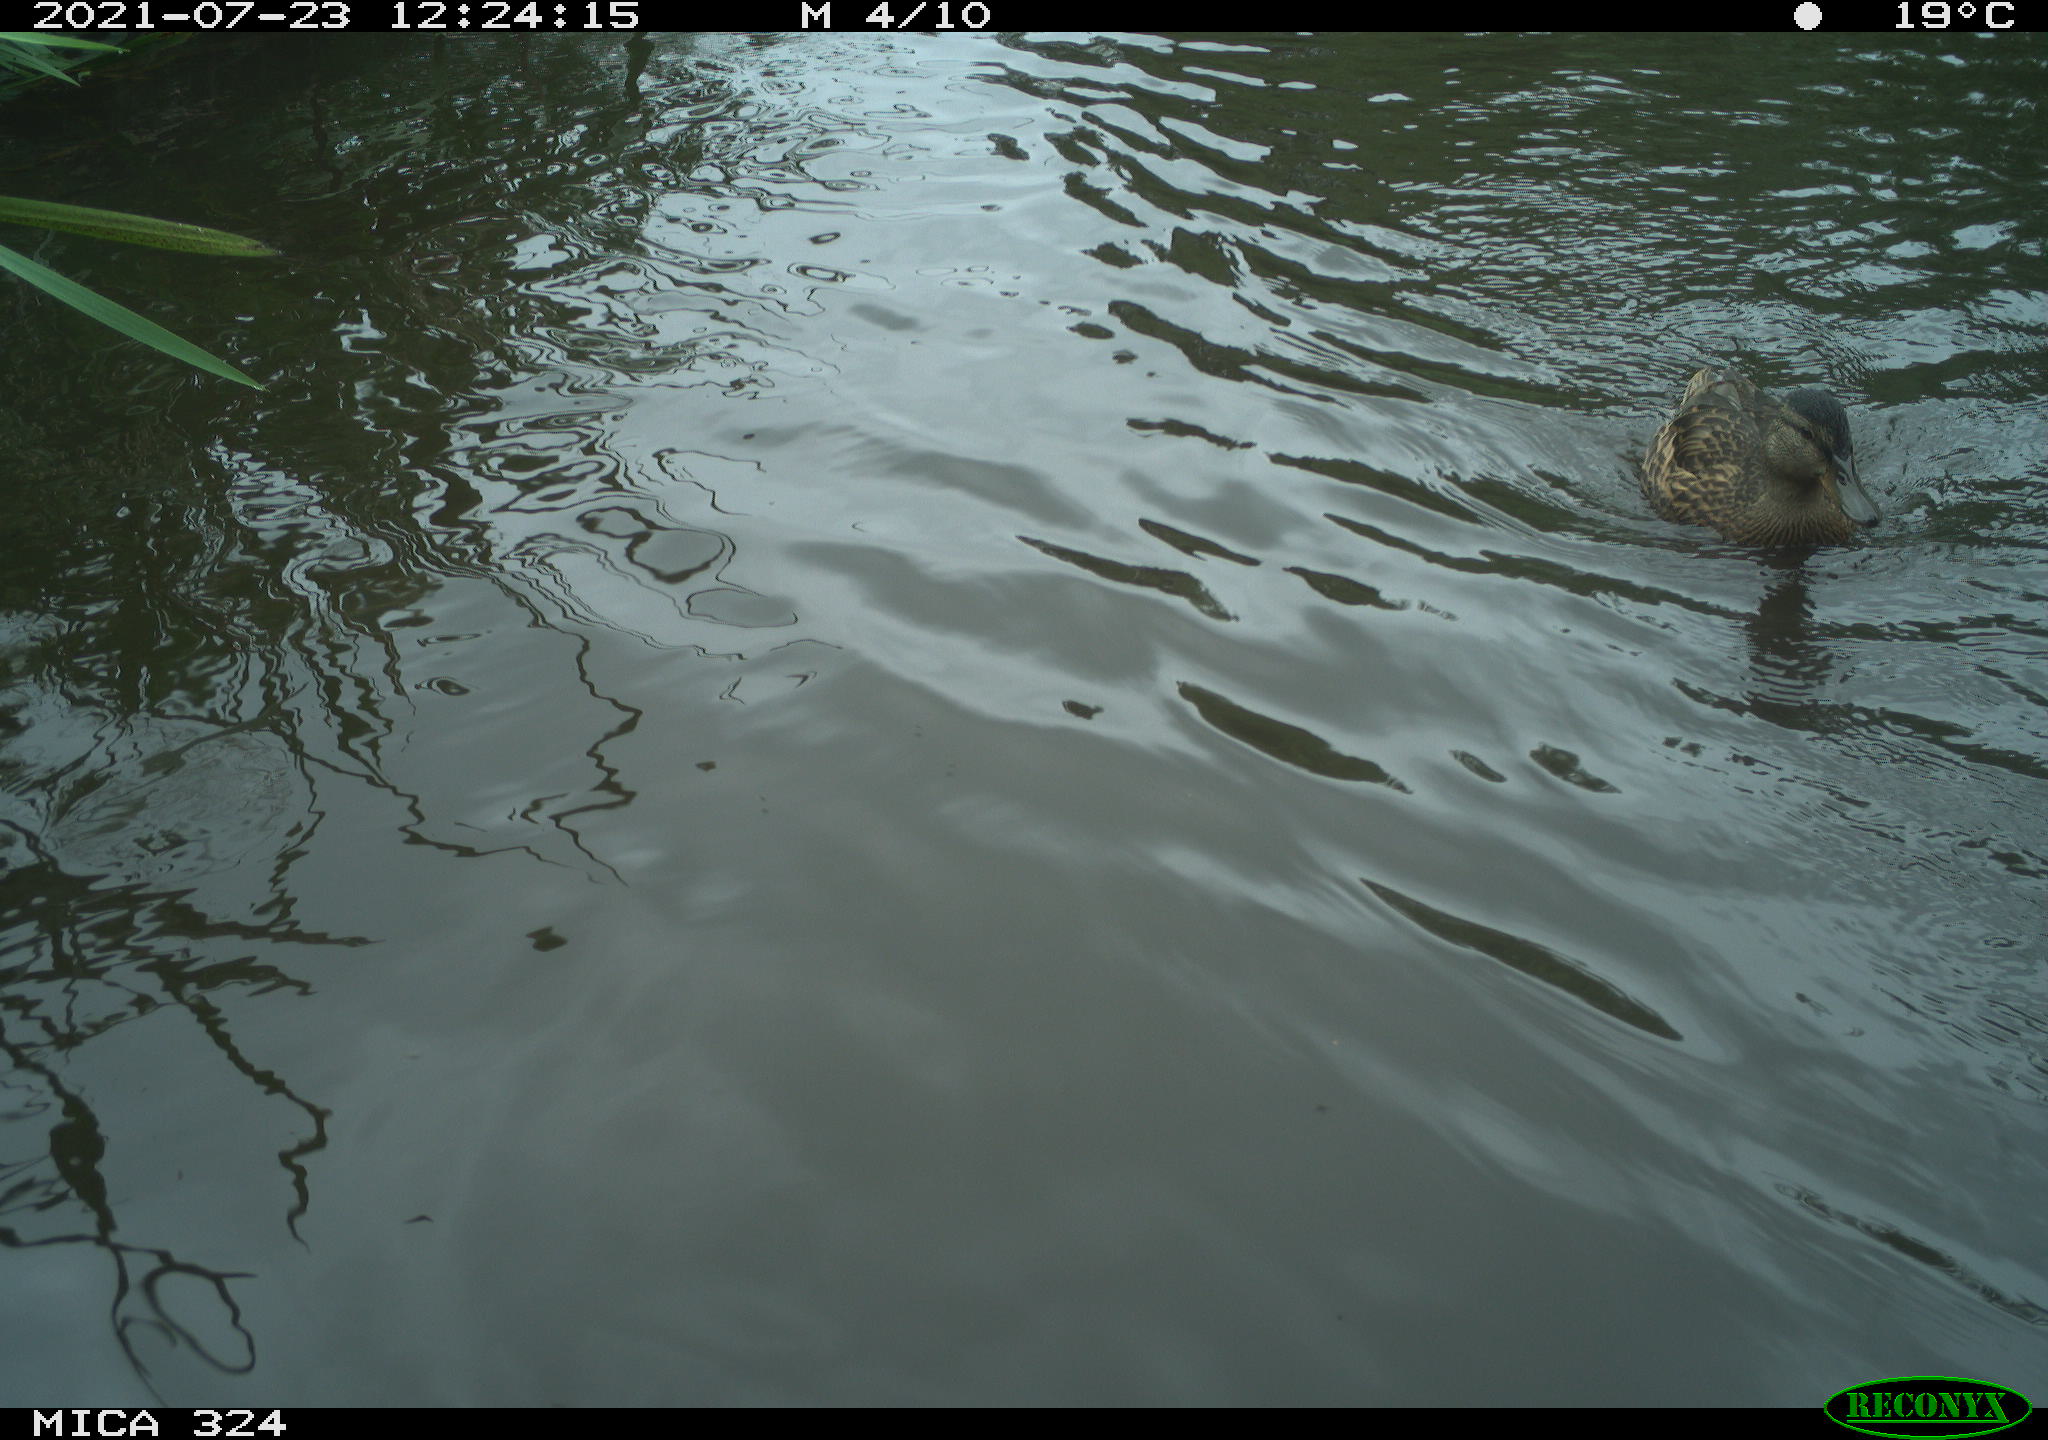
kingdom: Animalia
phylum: Chordata
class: Aves
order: Anseriformes
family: Anatidae
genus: Anas
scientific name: Anas platyrhynchos
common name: Mallard
